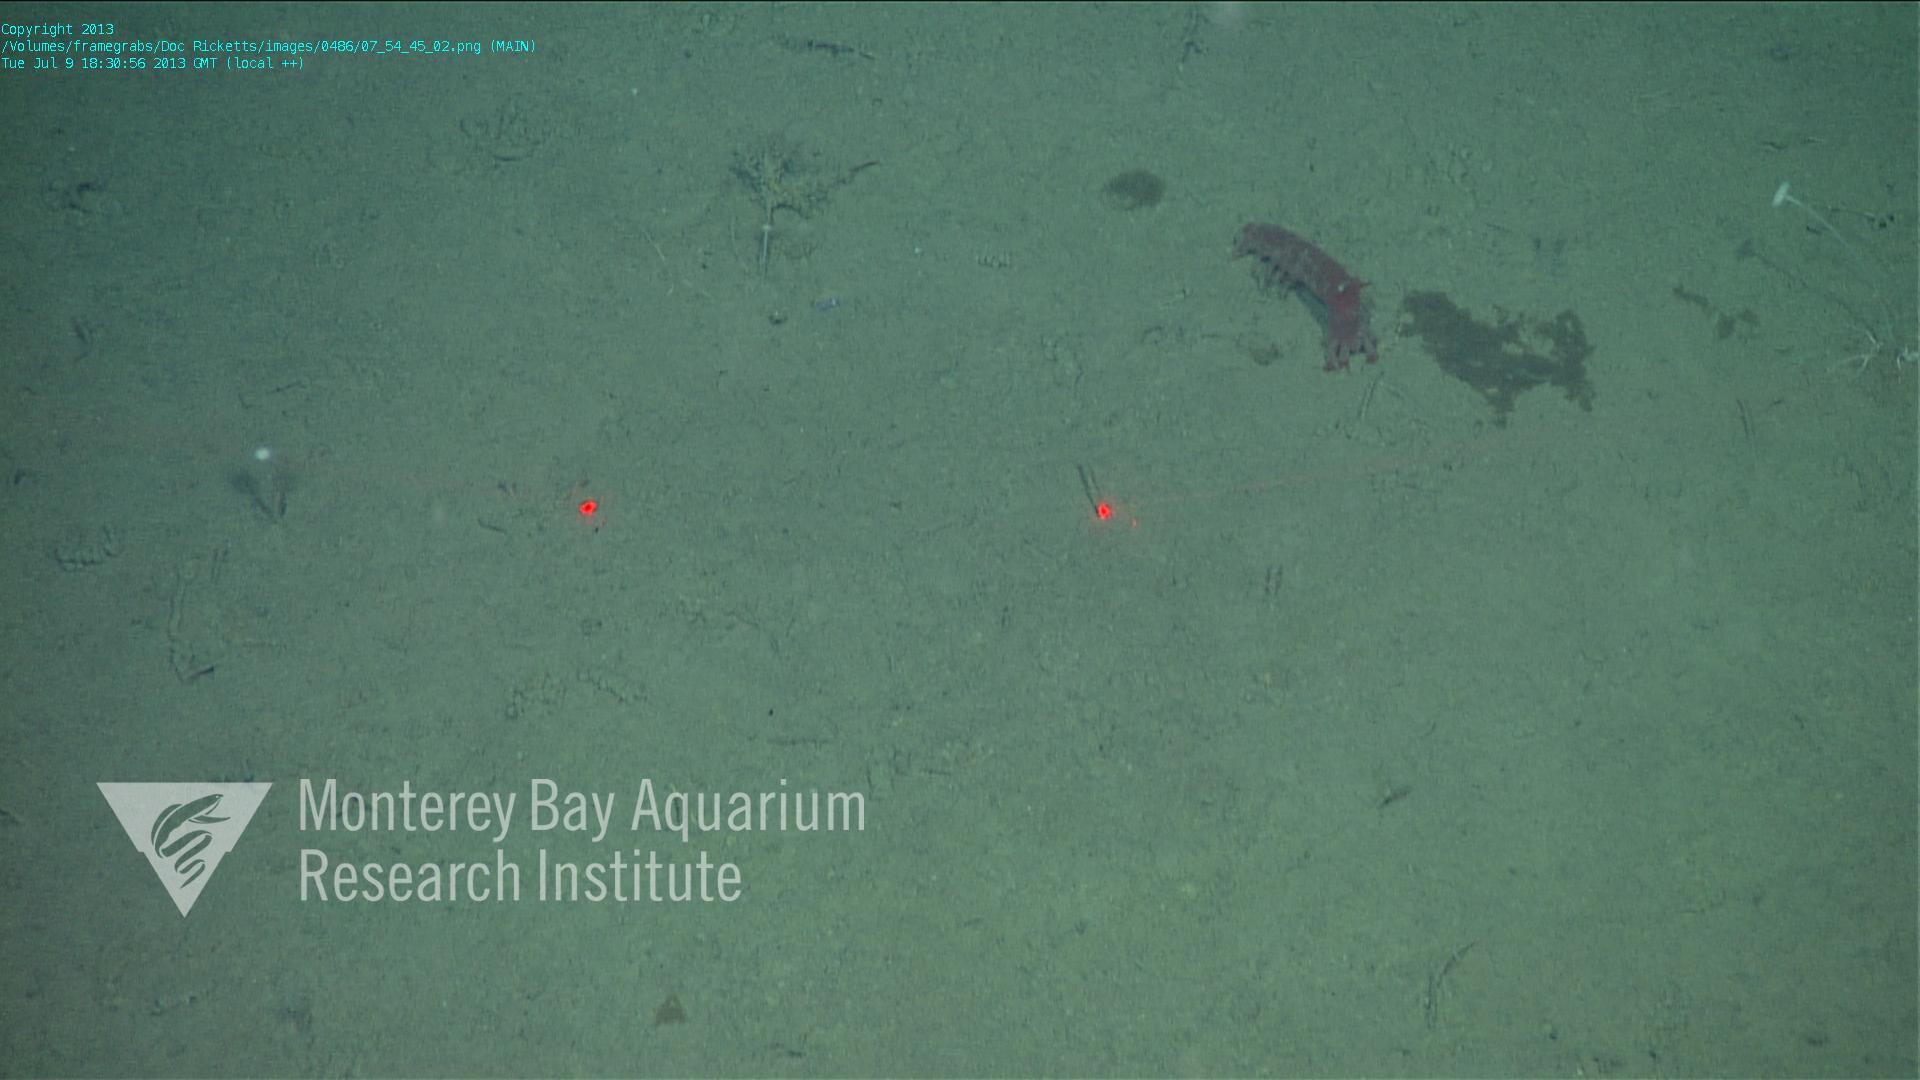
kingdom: Animalia
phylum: Porifera
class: Demospongiae
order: Poecilosclerida
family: Cladorhizidae
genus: Cladorhiza
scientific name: Cladorhiza
